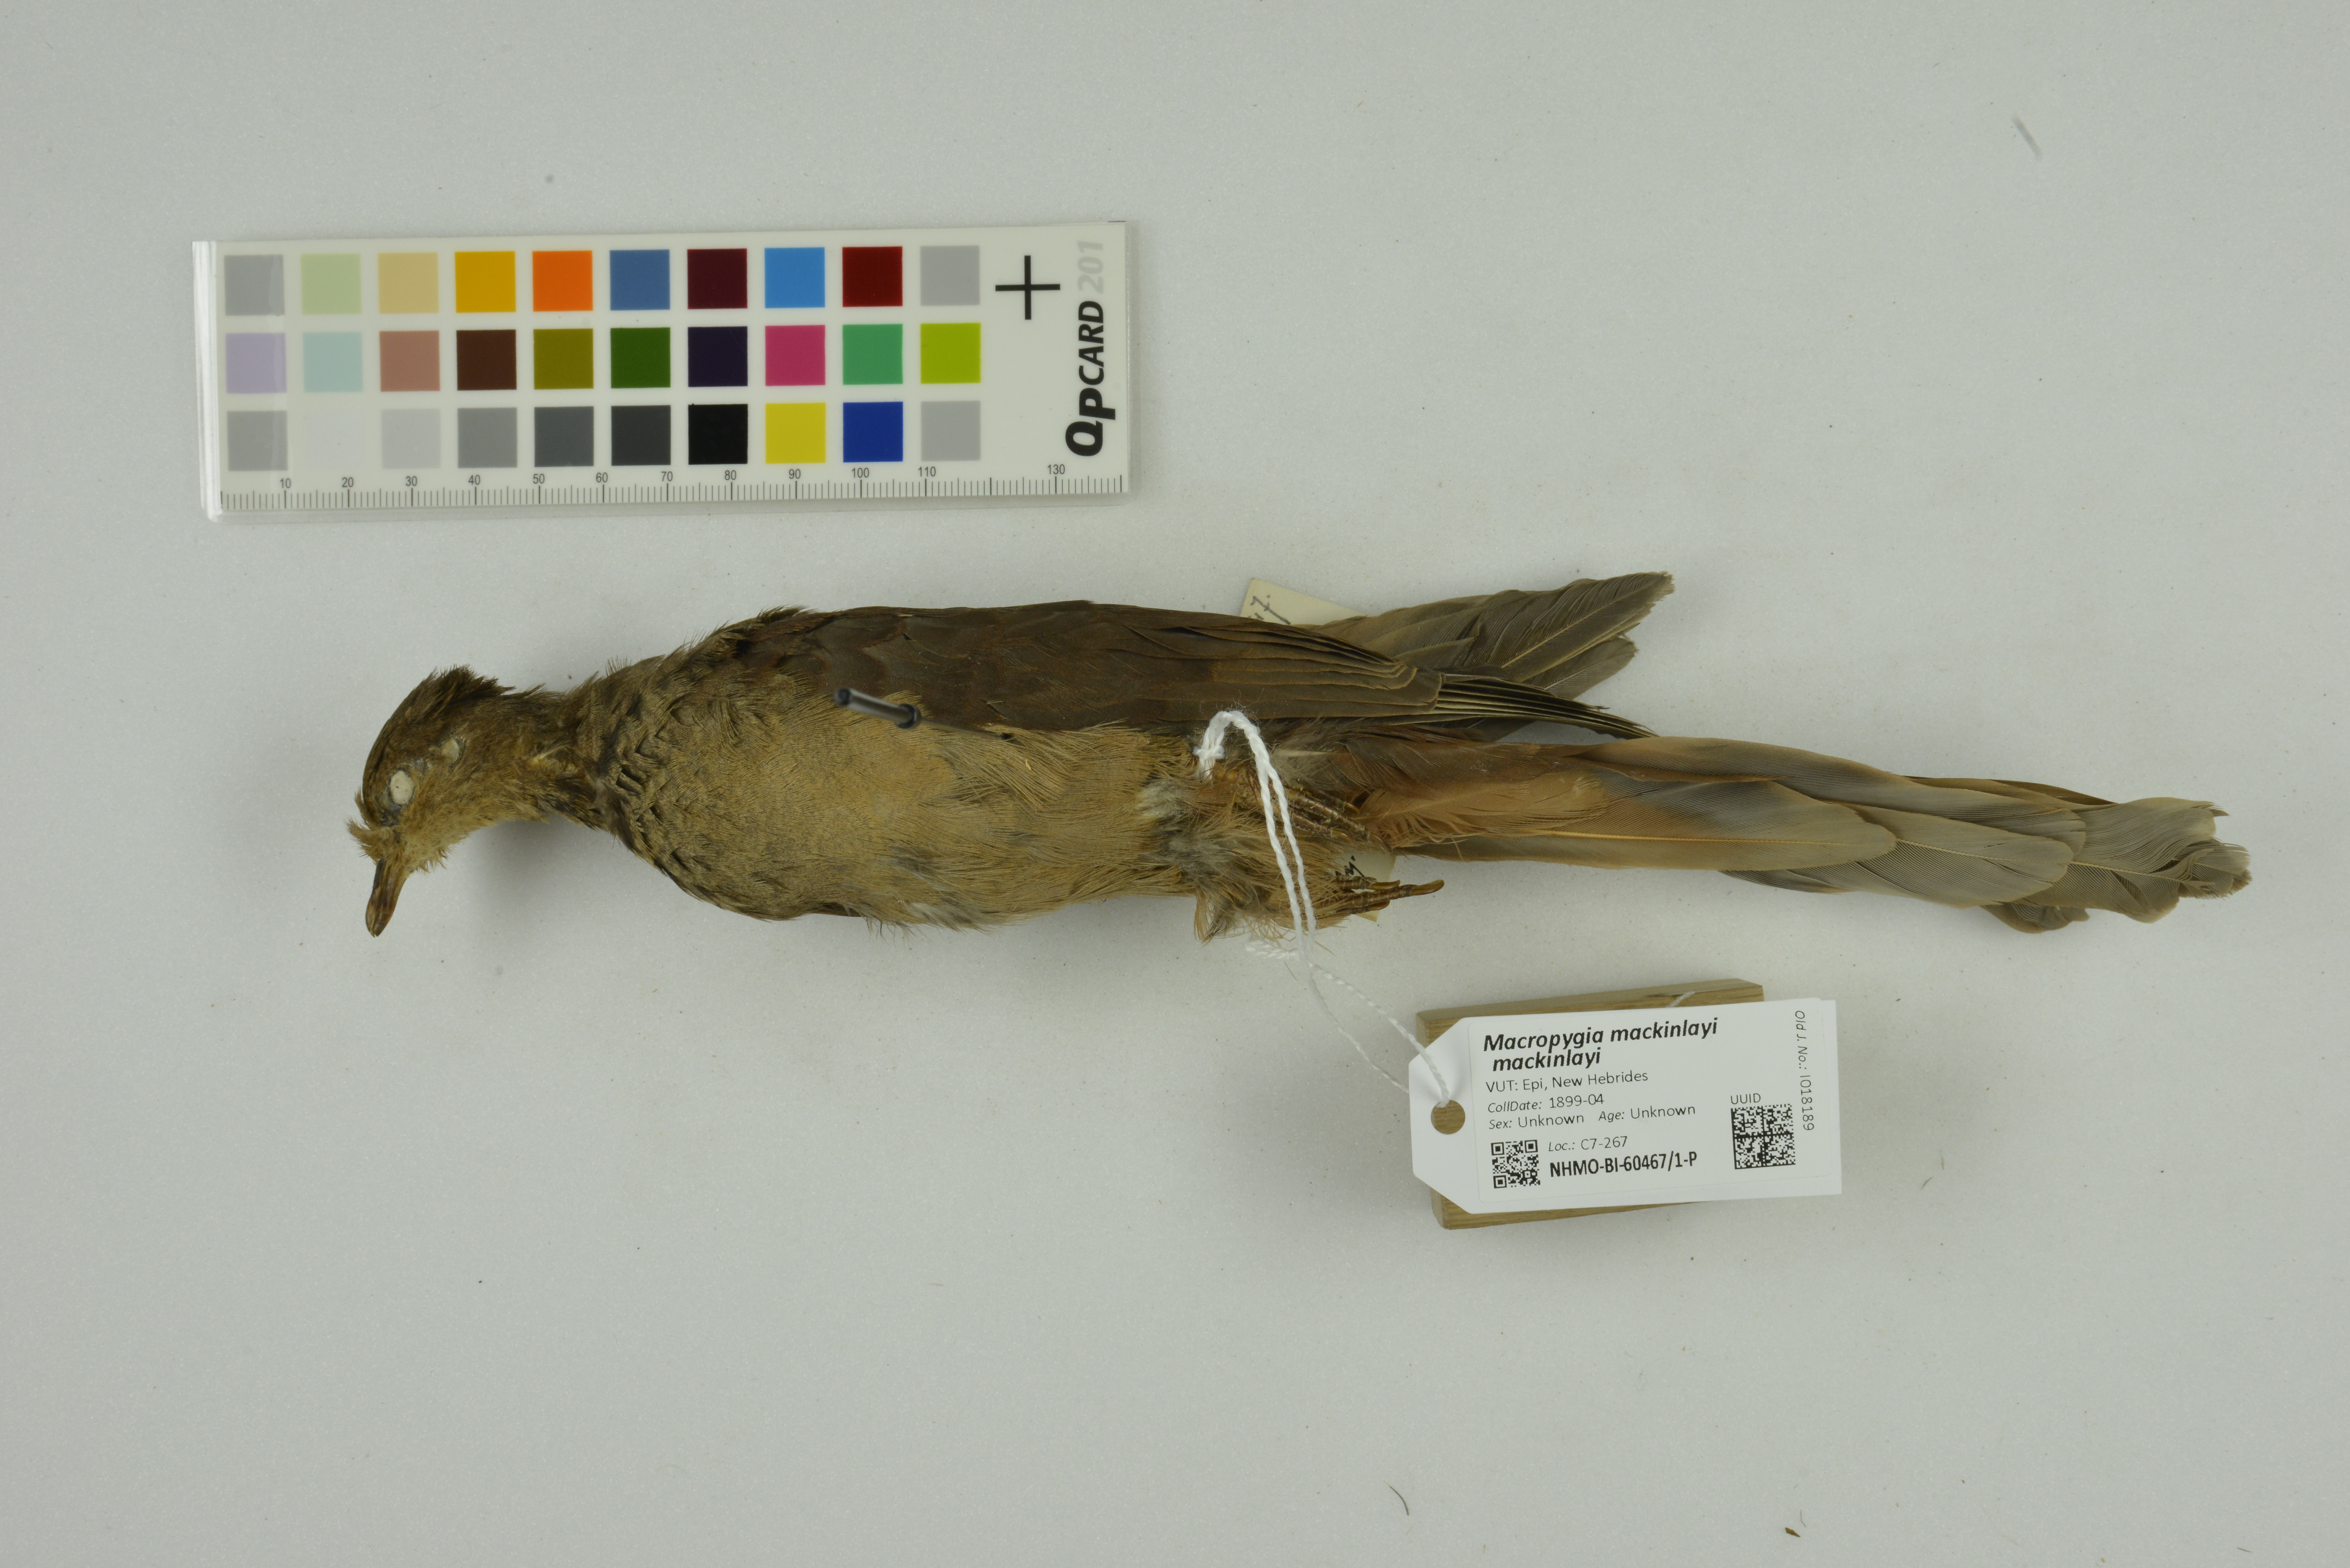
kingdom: Animalia
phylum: Chordata
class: Aves
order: Columbiformes
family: Columbidae
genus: Macropygia
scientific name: Macropygia mackinlayi
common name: Mackinlay's cuckoo-dove
